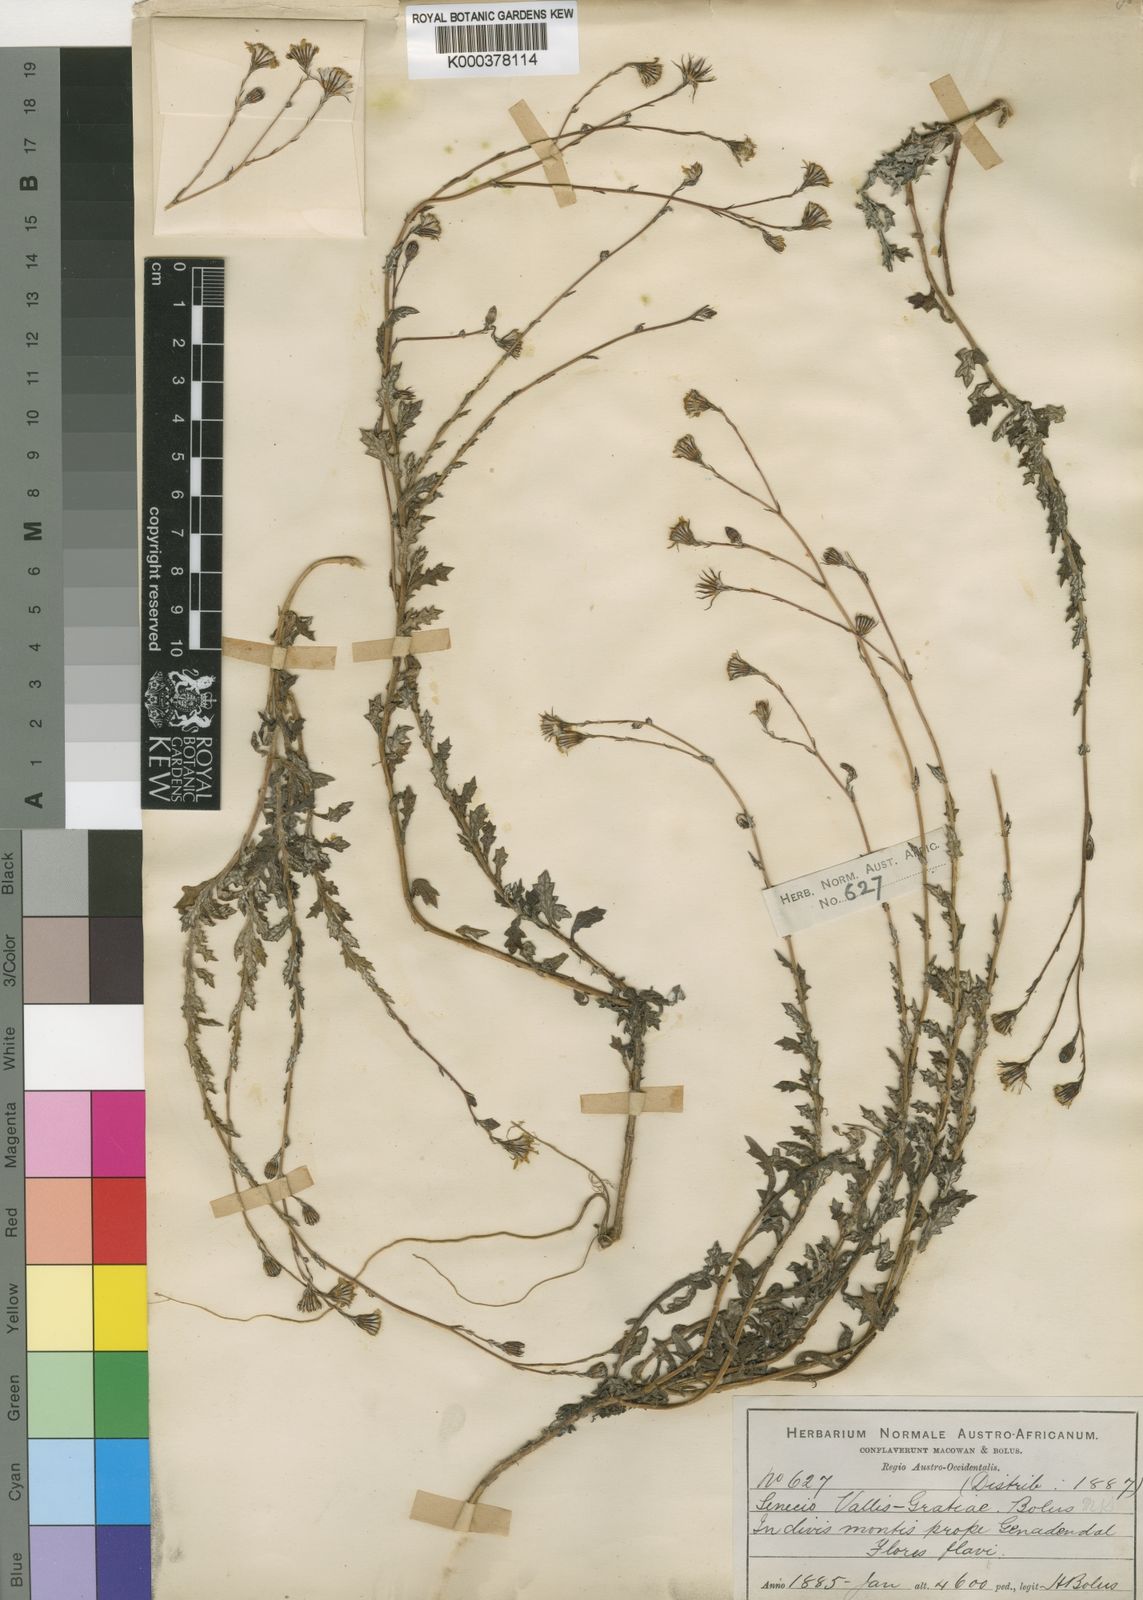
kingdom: Plantae
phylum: Tracheophyta
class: Magnoliopsida
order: Asterales
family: Asteraceae
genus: Senecio
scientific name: Senecio
